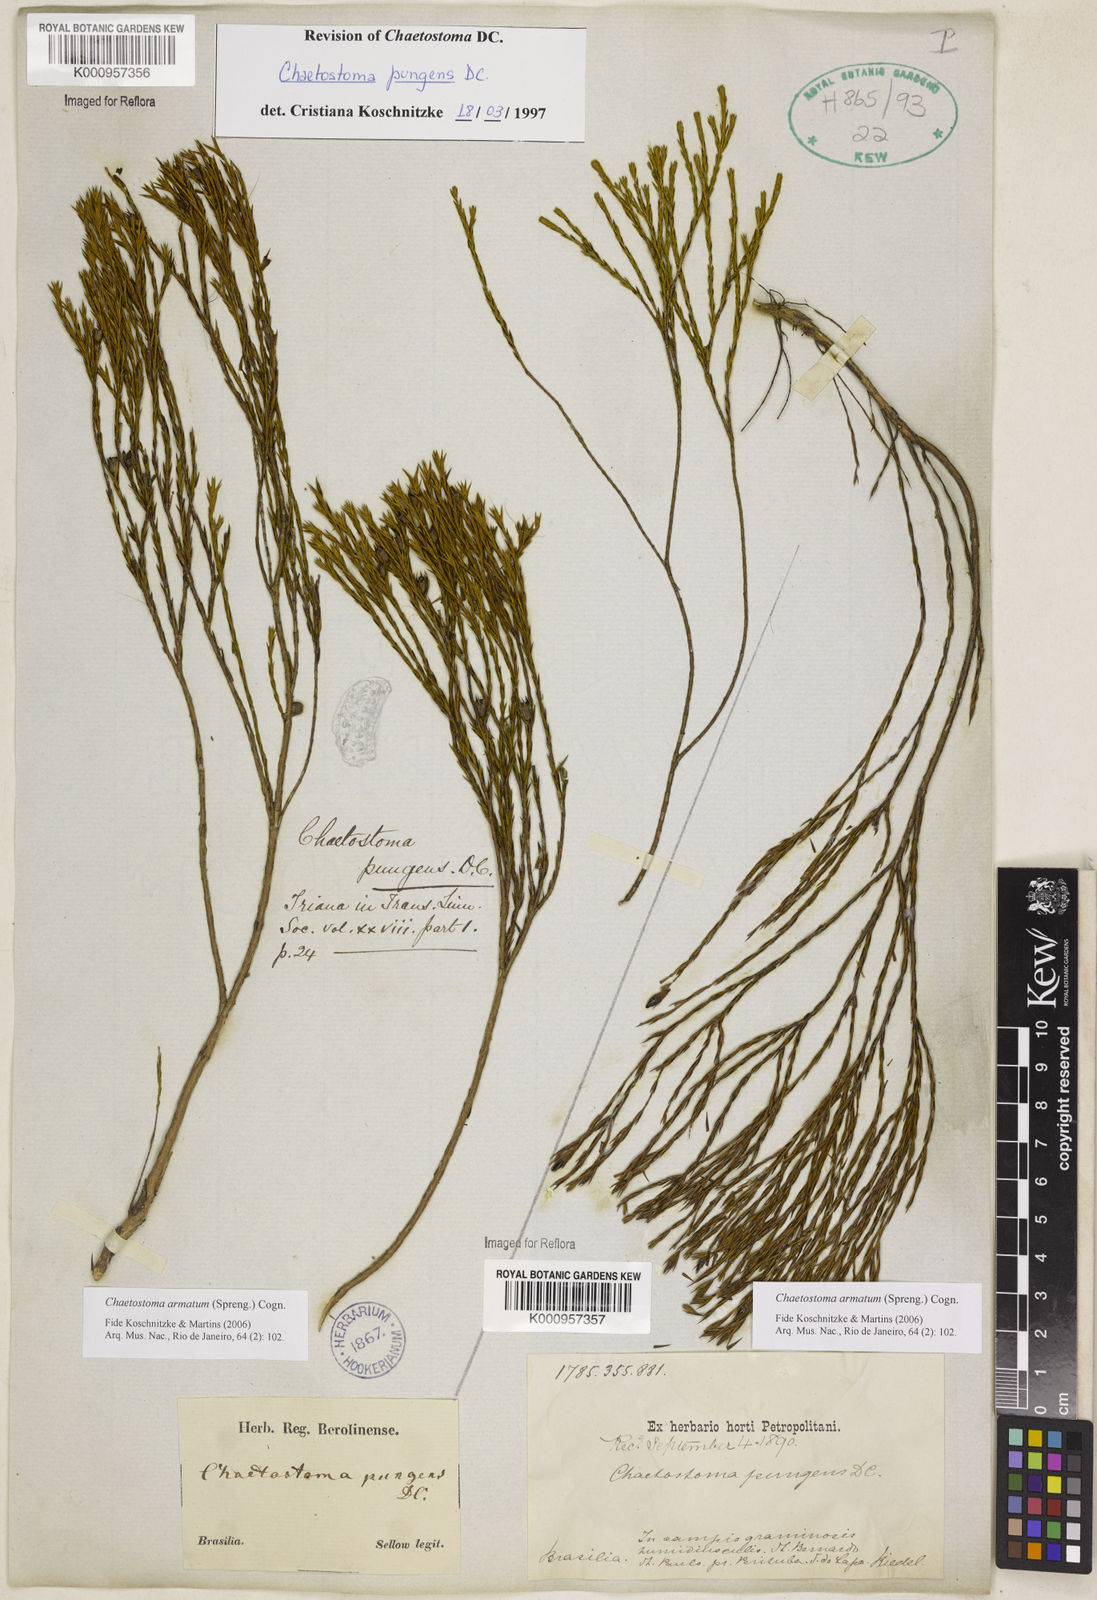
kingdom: Plantae
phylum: Tracheophyta
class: Magnoliopsida
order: Myrtales
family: Melastomataceae
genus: Microlicia
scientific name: Microlicia armata
